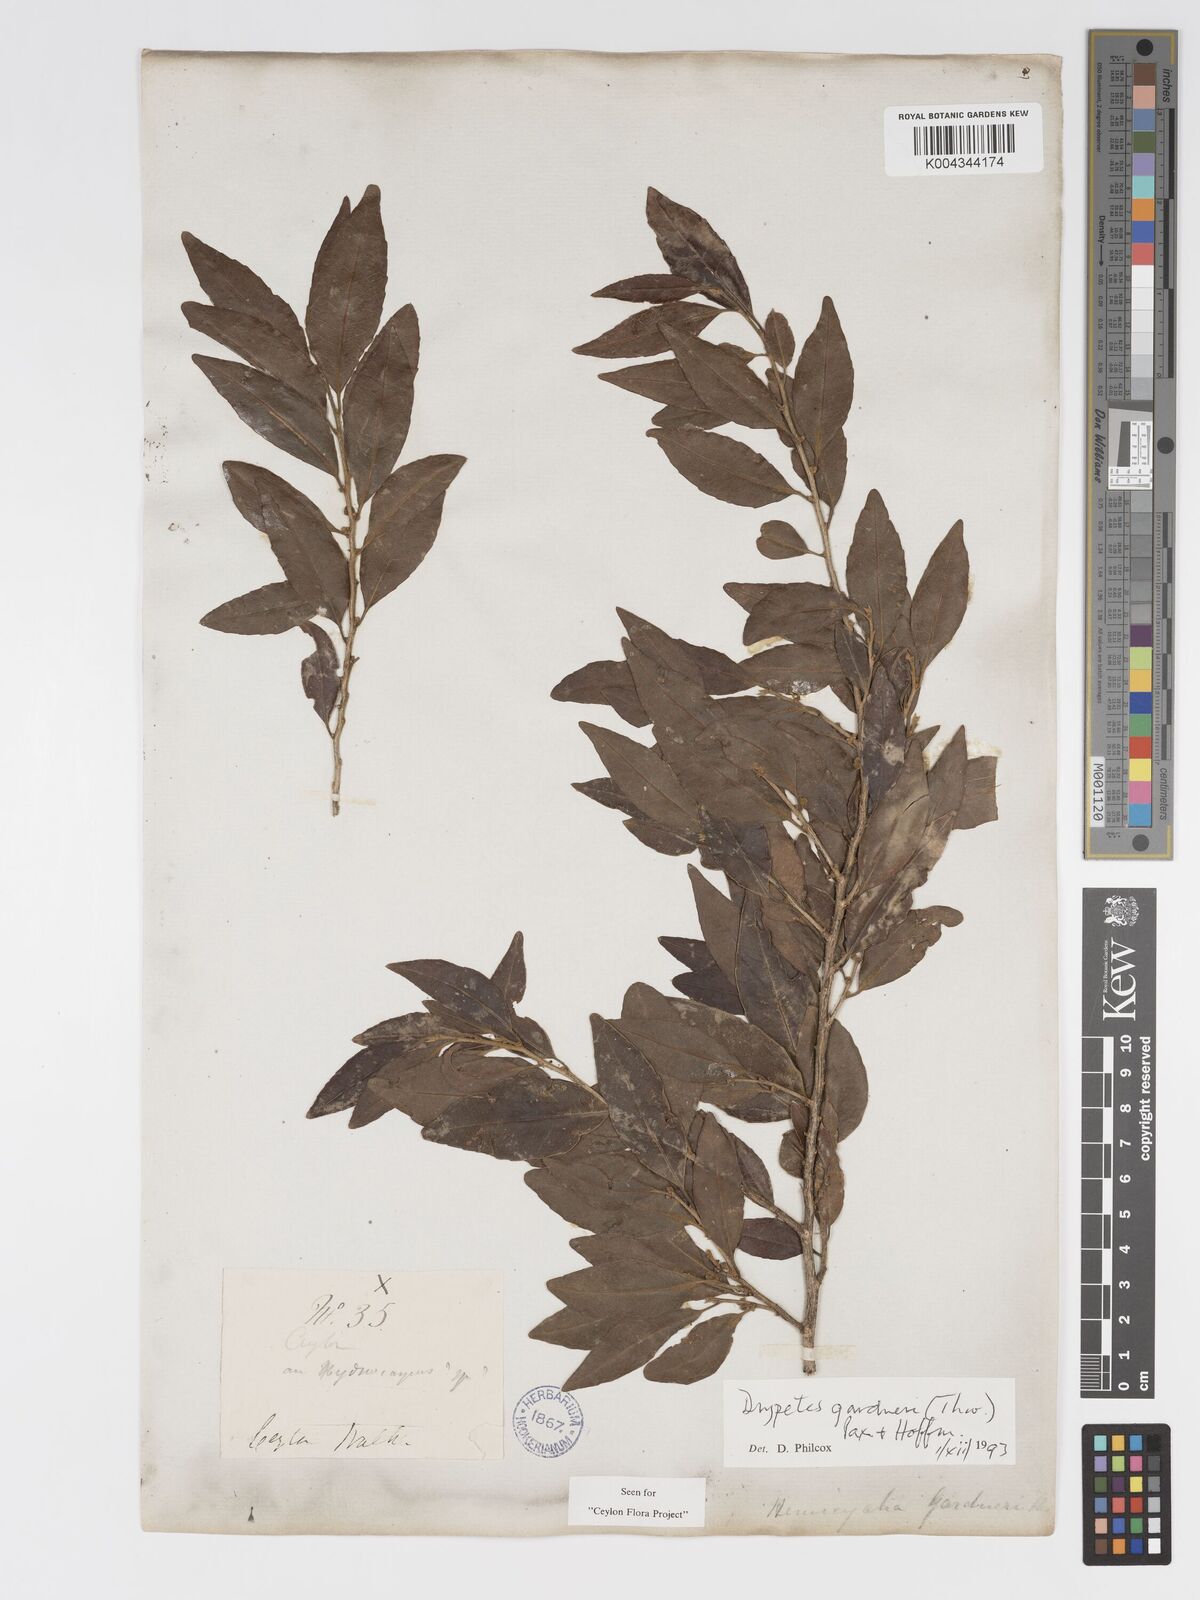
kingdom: Plantae
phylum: Tracheophyta
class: Magnoliopsida
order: Malpighiales
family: Putranjivaceae
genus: Drypetes
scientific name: Drypetes gardneri
